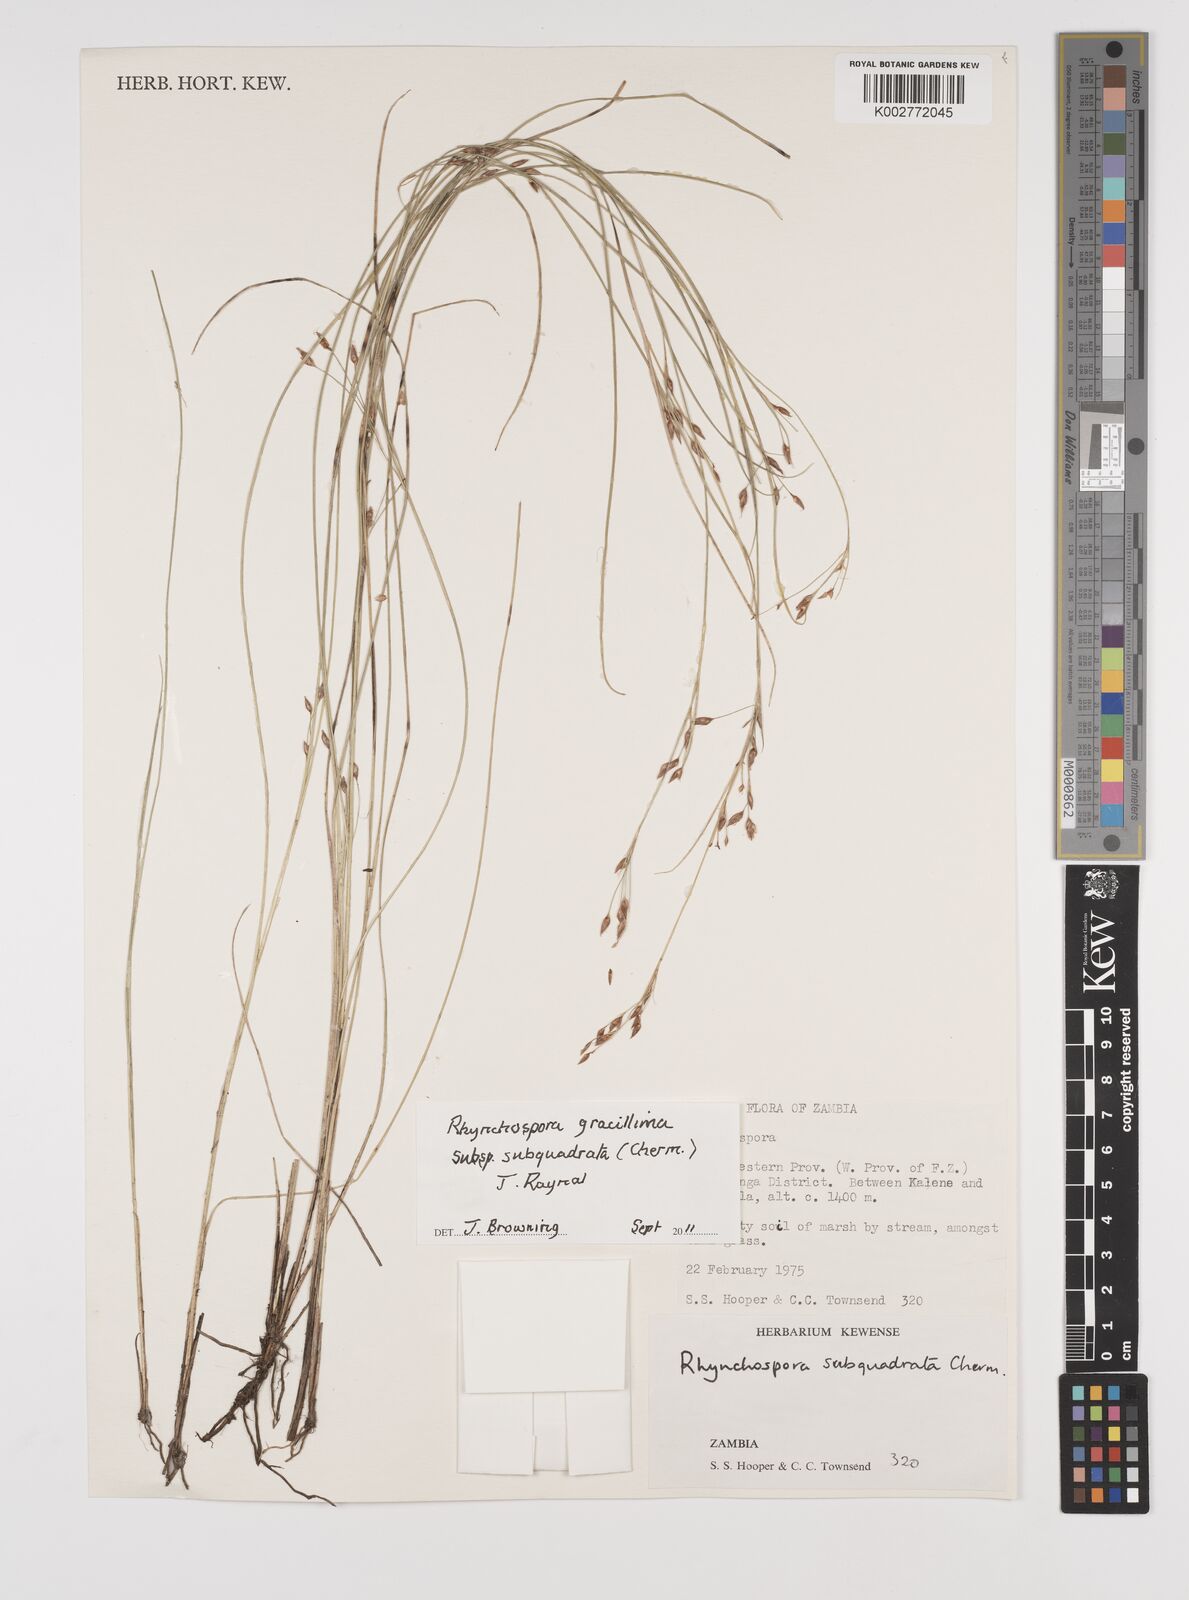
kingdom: Plantae
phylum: Tracheophyta
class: Liliopsida
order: Poales
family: Cyperaceae
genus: Rhynchospora
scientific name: Rhynchospora gracillima
